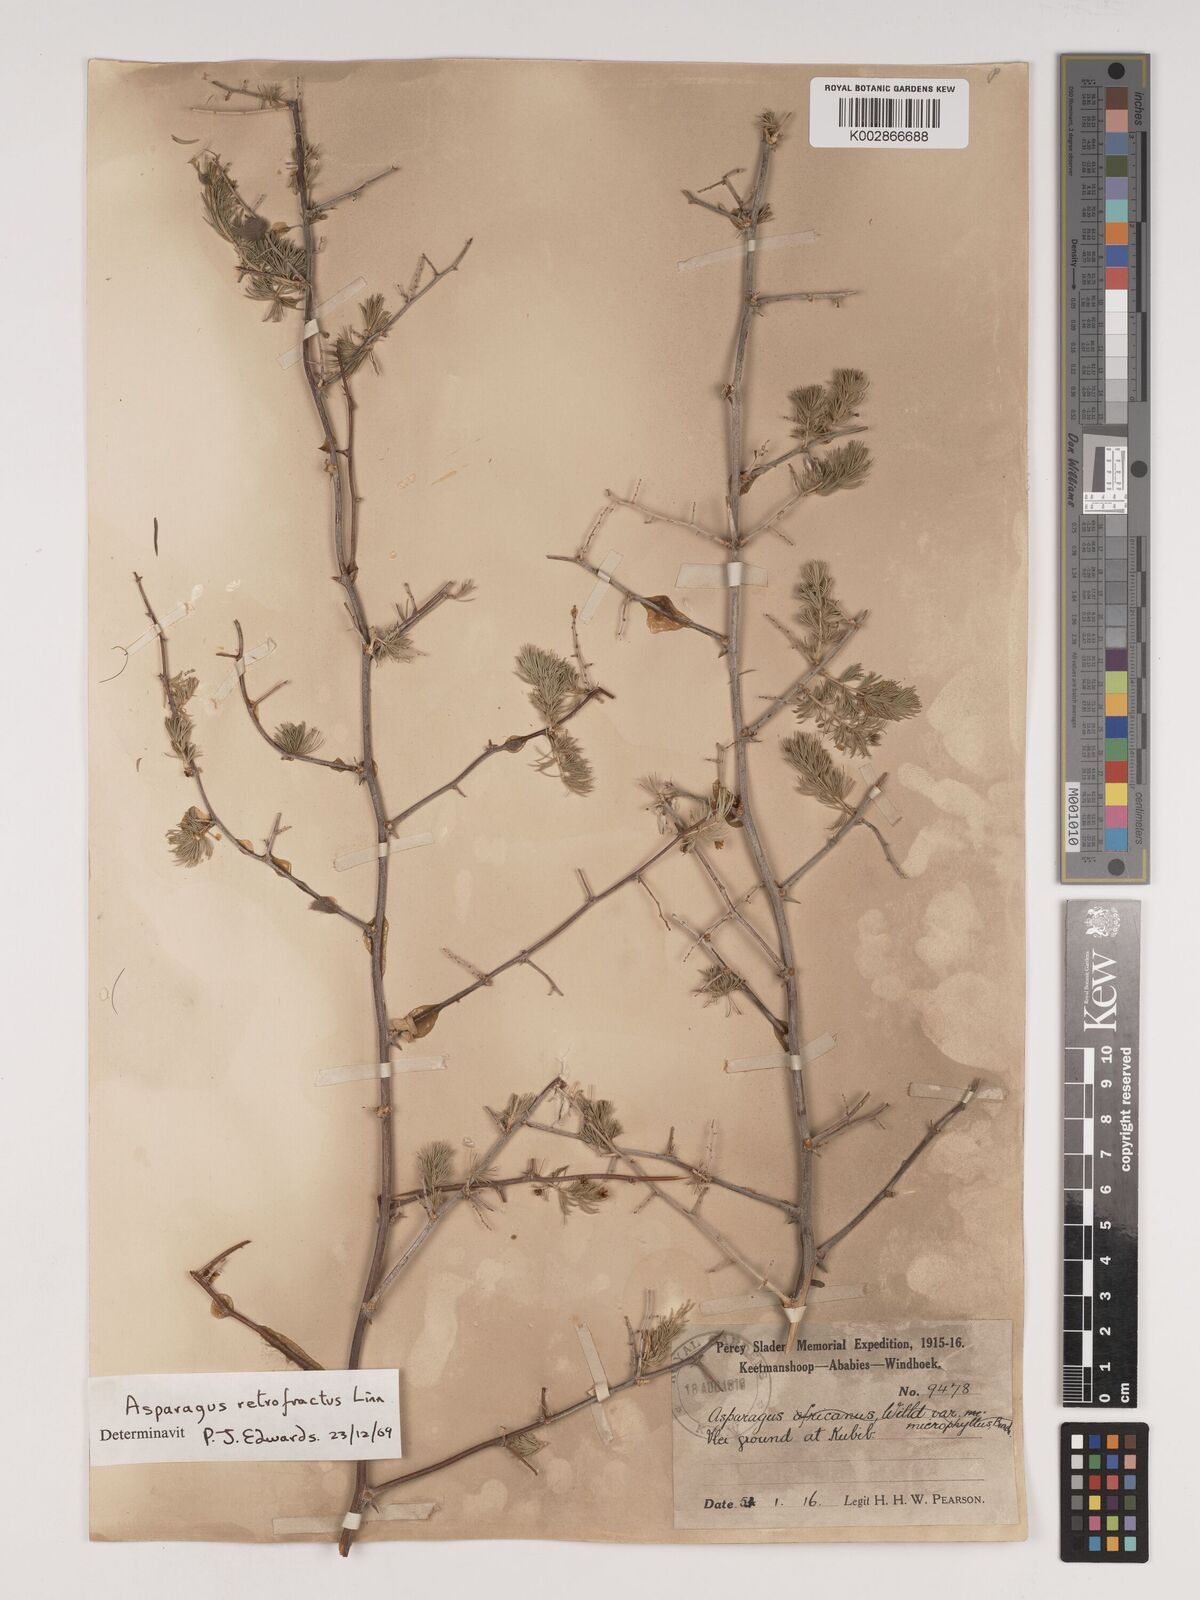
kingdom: Plantae
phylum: Tracheophyta
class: Liliopsida
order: Asparagales
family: Asparagaceae
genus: Asparagus
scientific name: Asparagus retrofractus
